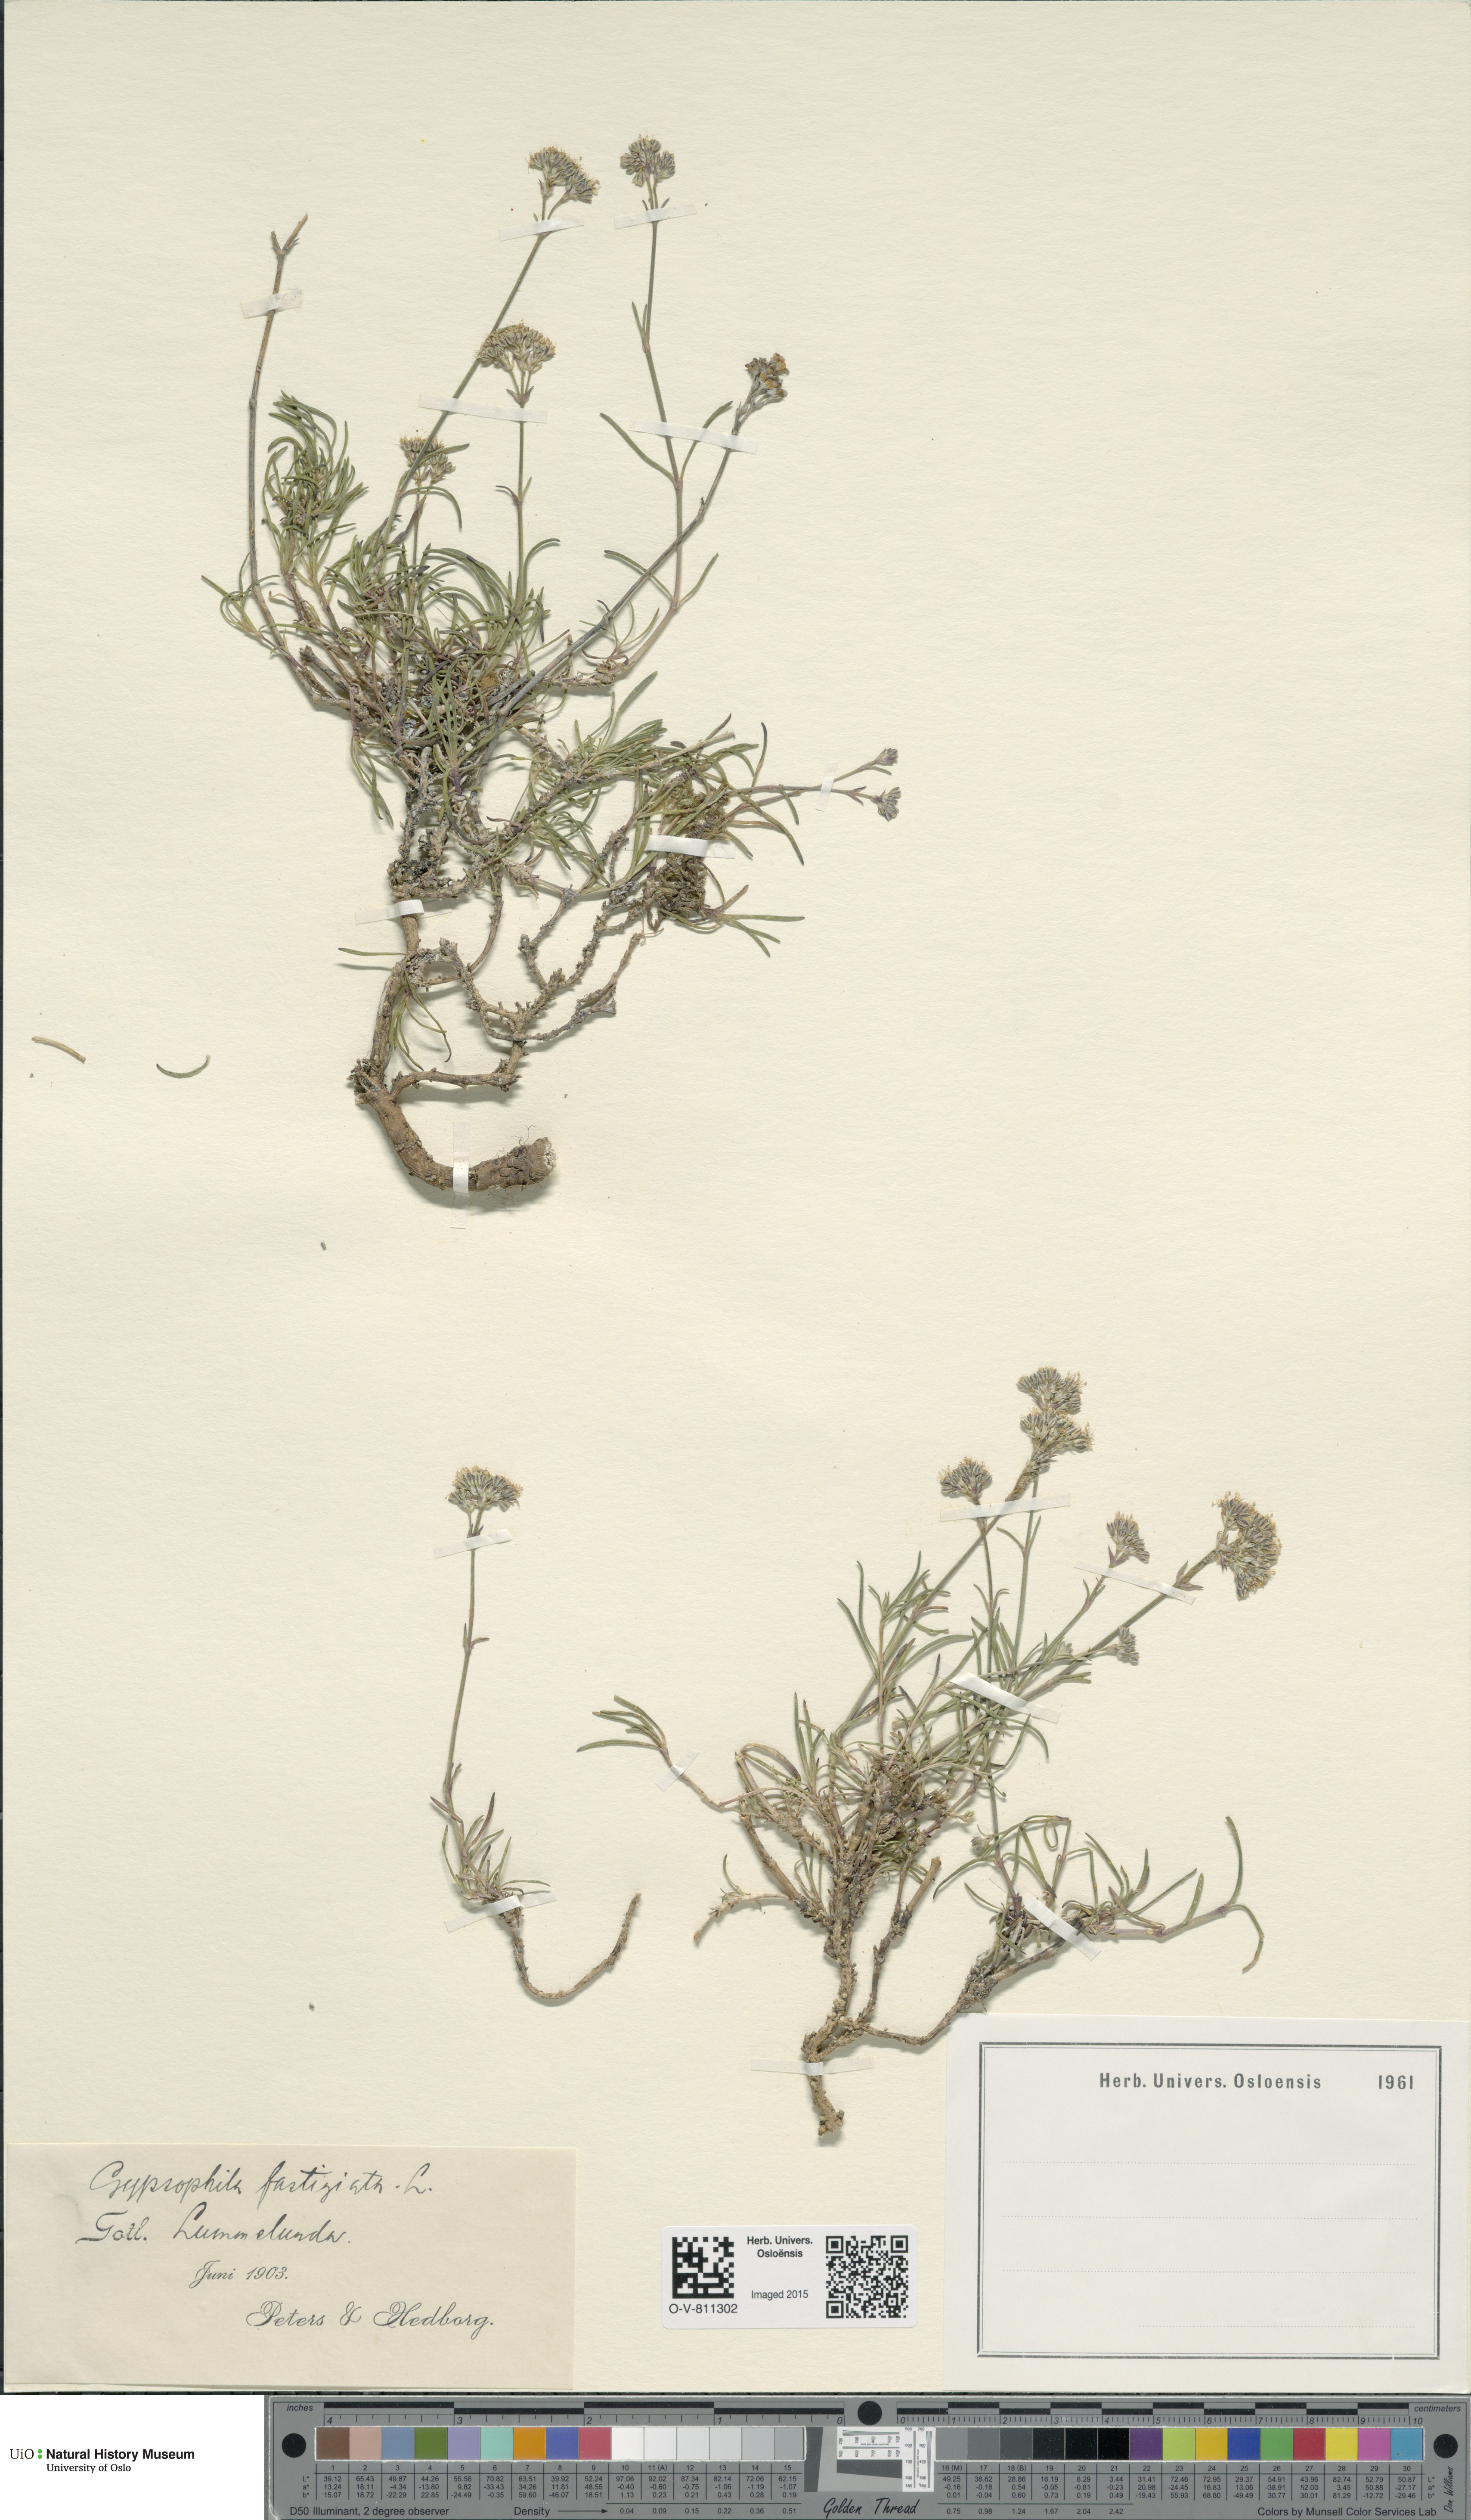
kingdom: Plantae
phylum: Tracheophyta
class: Magnoliopsida
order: Caryophyllales
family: Caryophyllaceae
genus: Gypsophila
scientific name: Gypsophila fastigiata
